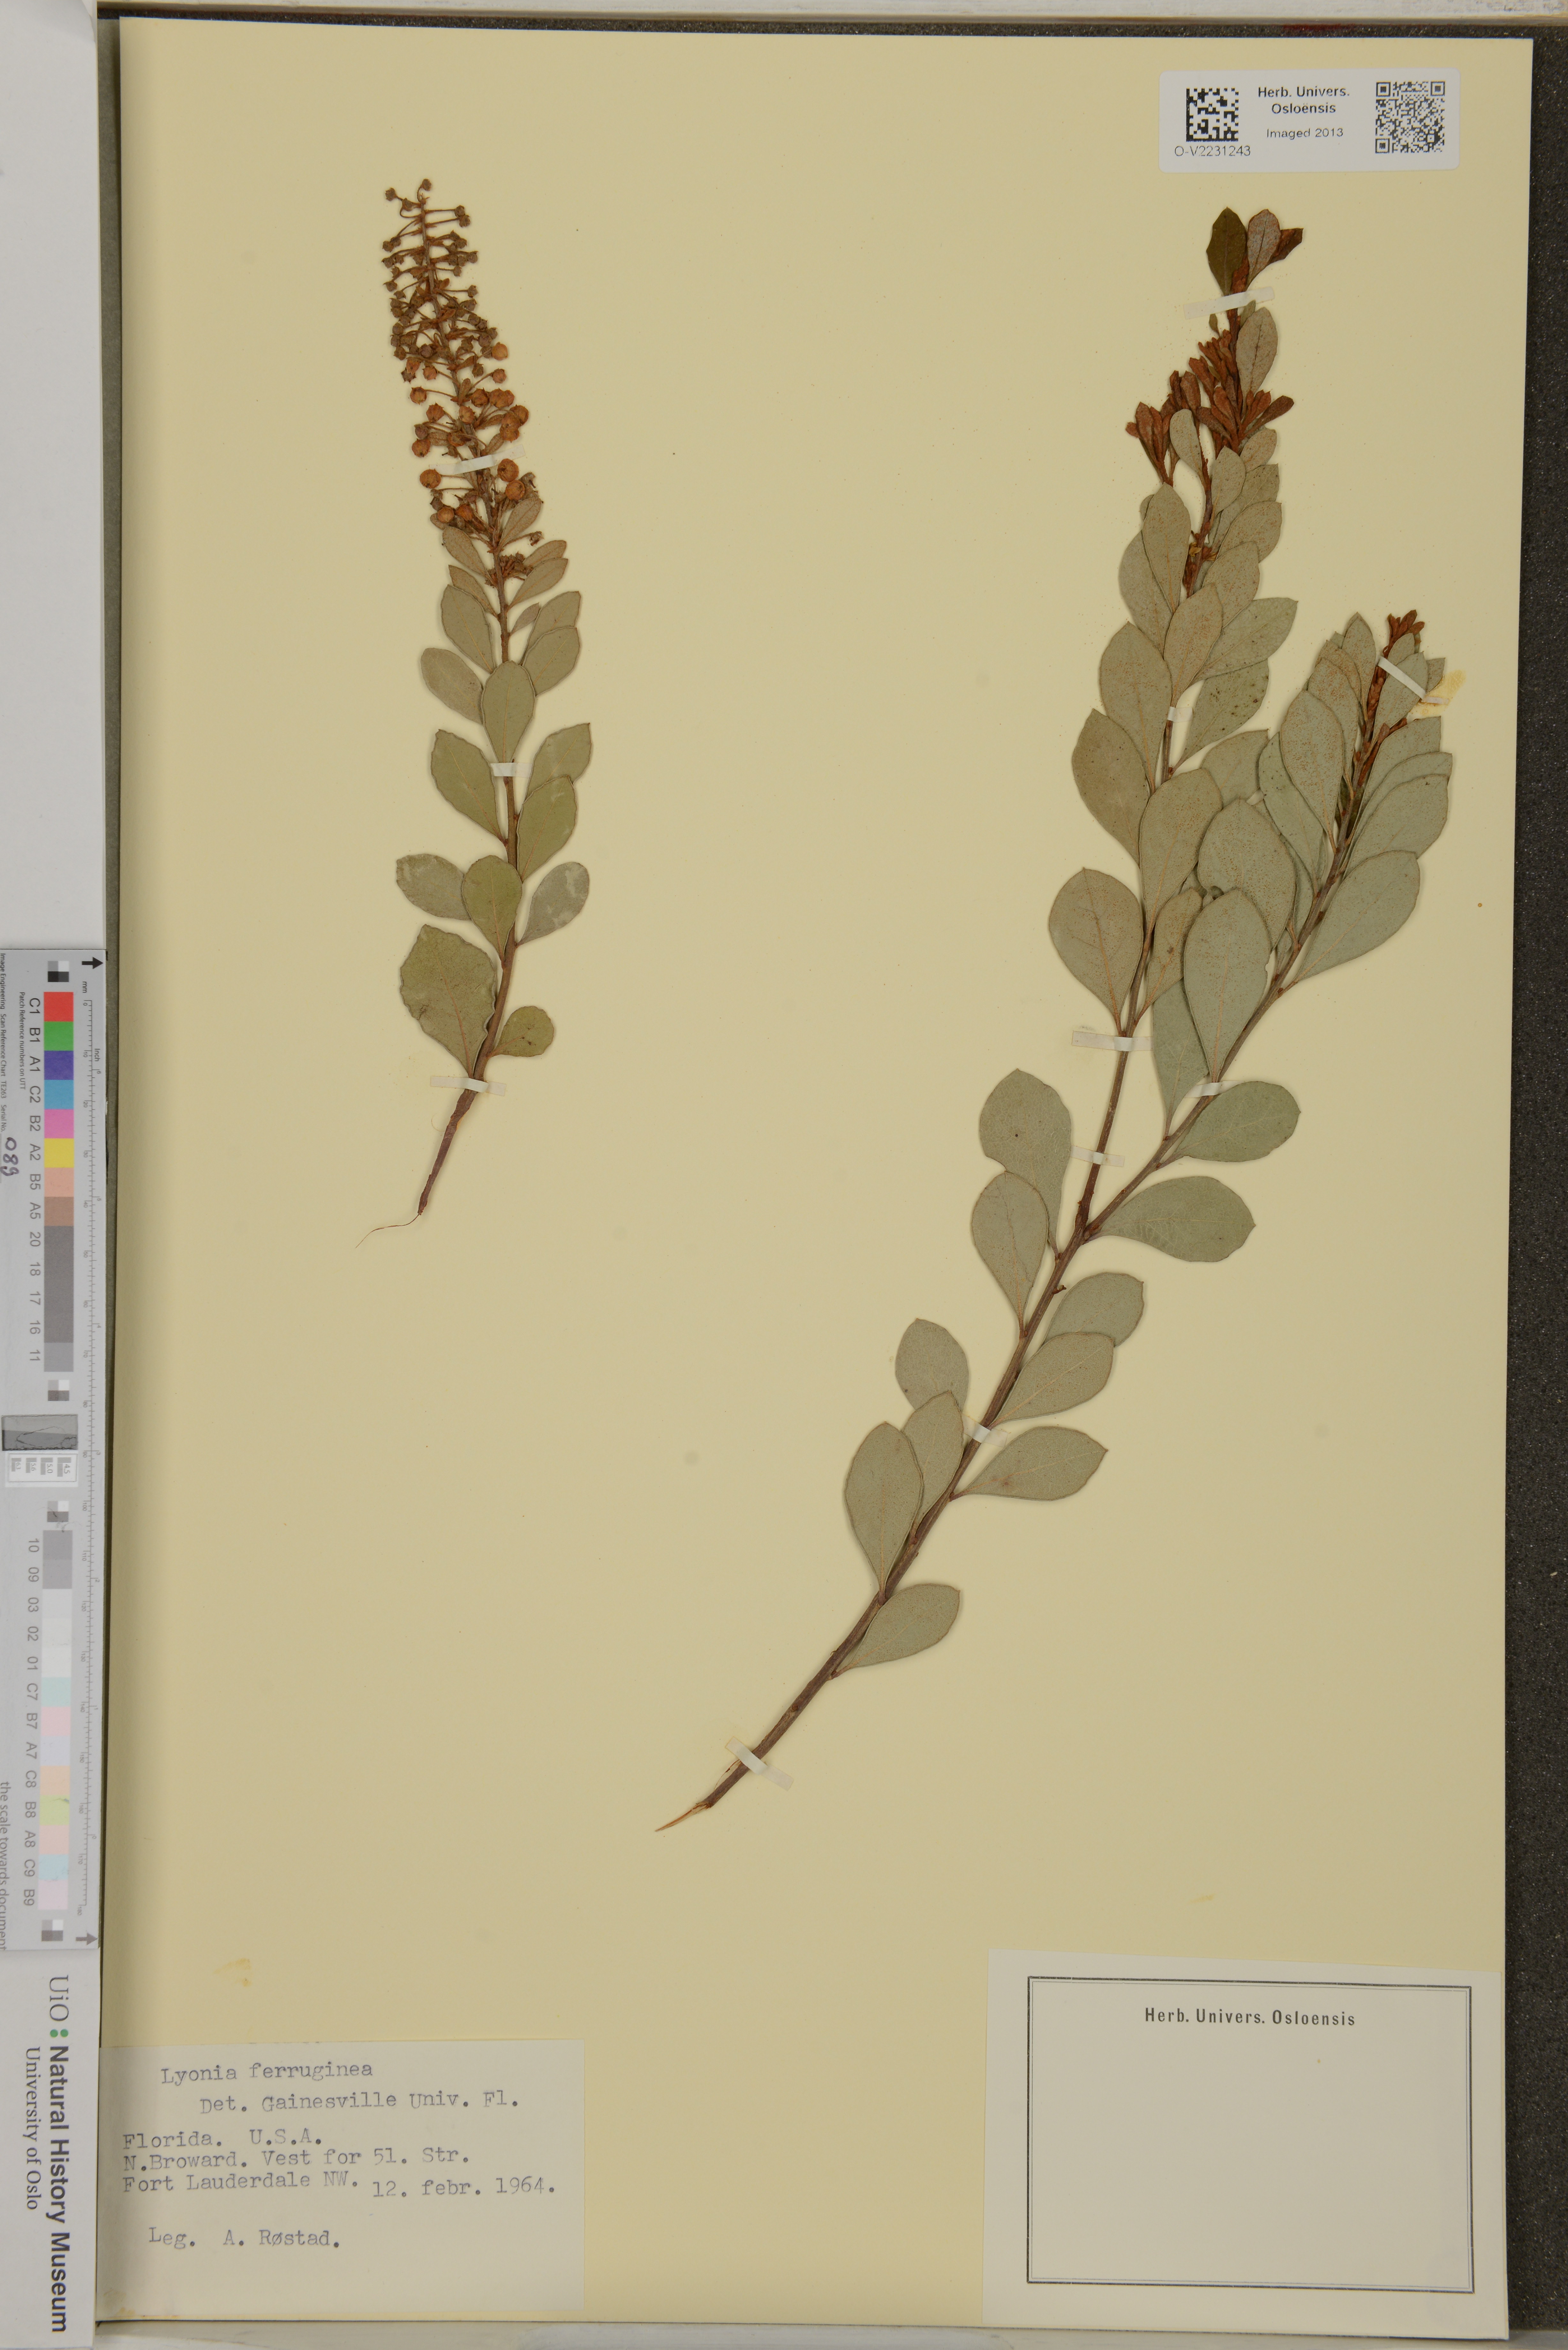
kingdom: Plantae
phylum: Tracheophyta
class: Magnoliopsida
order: Ericales
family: Ericaceae
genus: Lyonia
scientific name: Lyonia ferruginea
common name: Rusty lyonia
